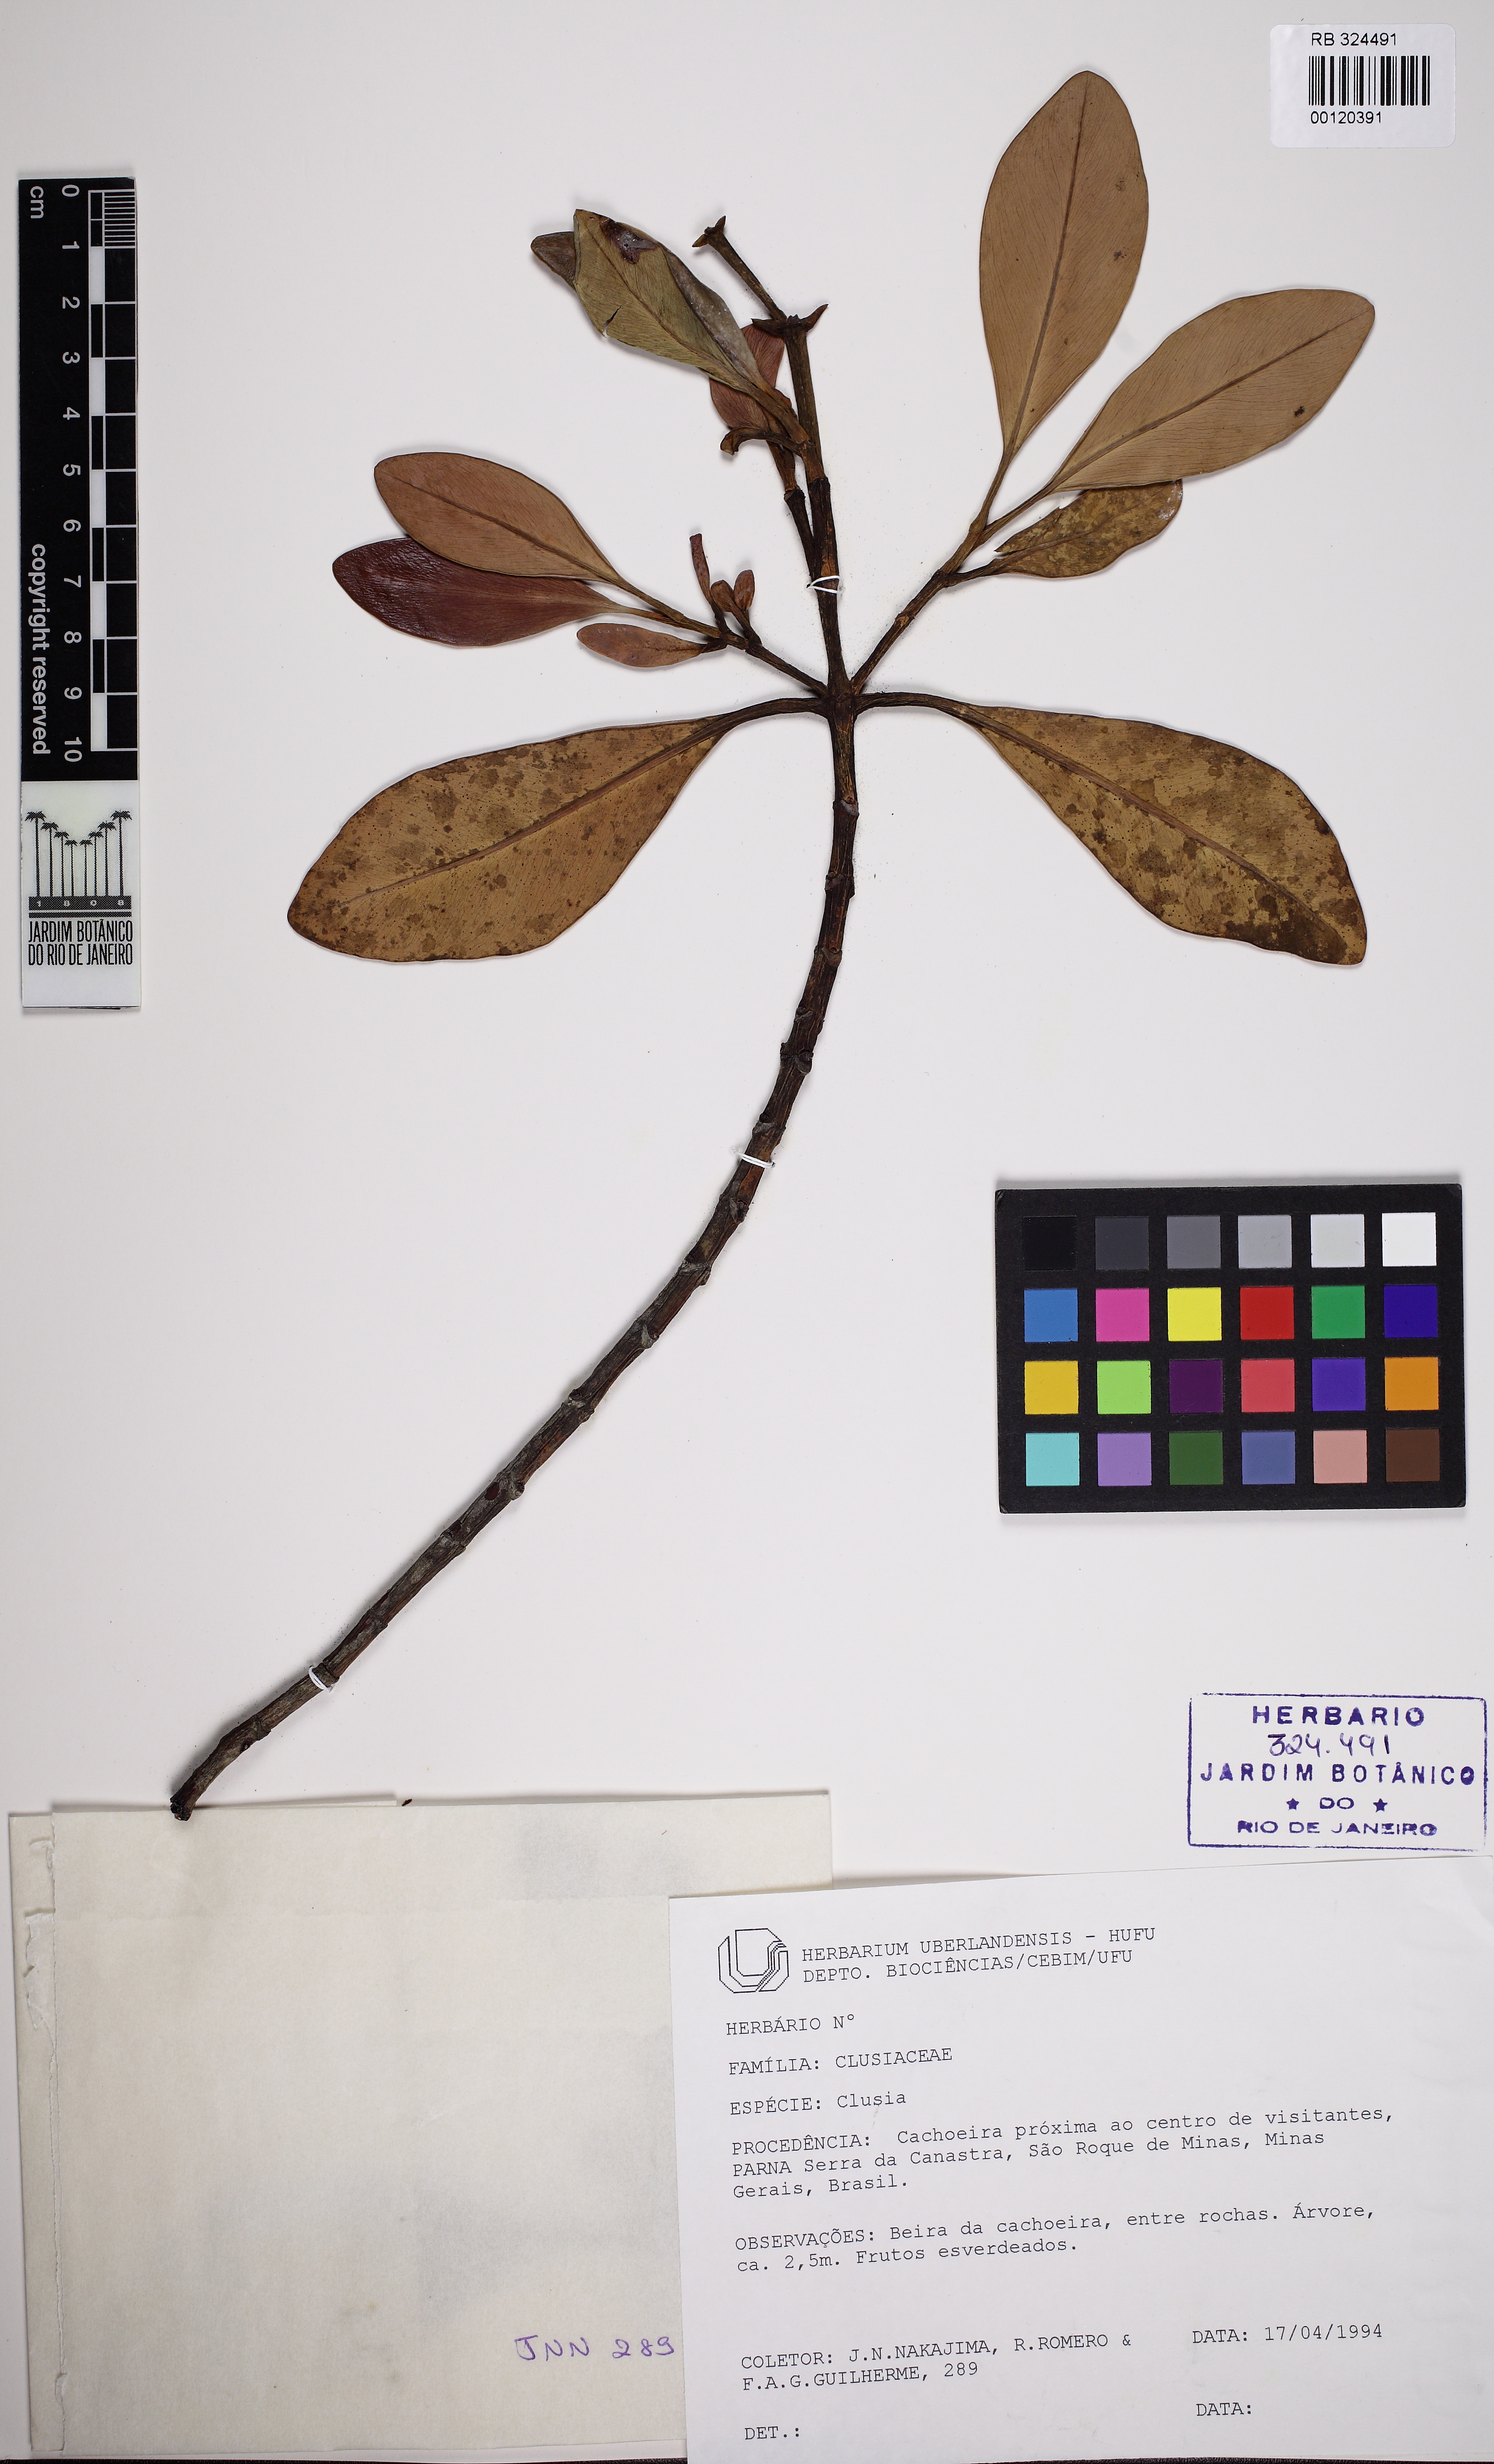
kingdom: Plantae
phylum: Tracheophyta
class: Magnoliopsida
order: Malpighiales
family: Clusiaceae
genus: Clusia
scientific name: Clusia criuva
